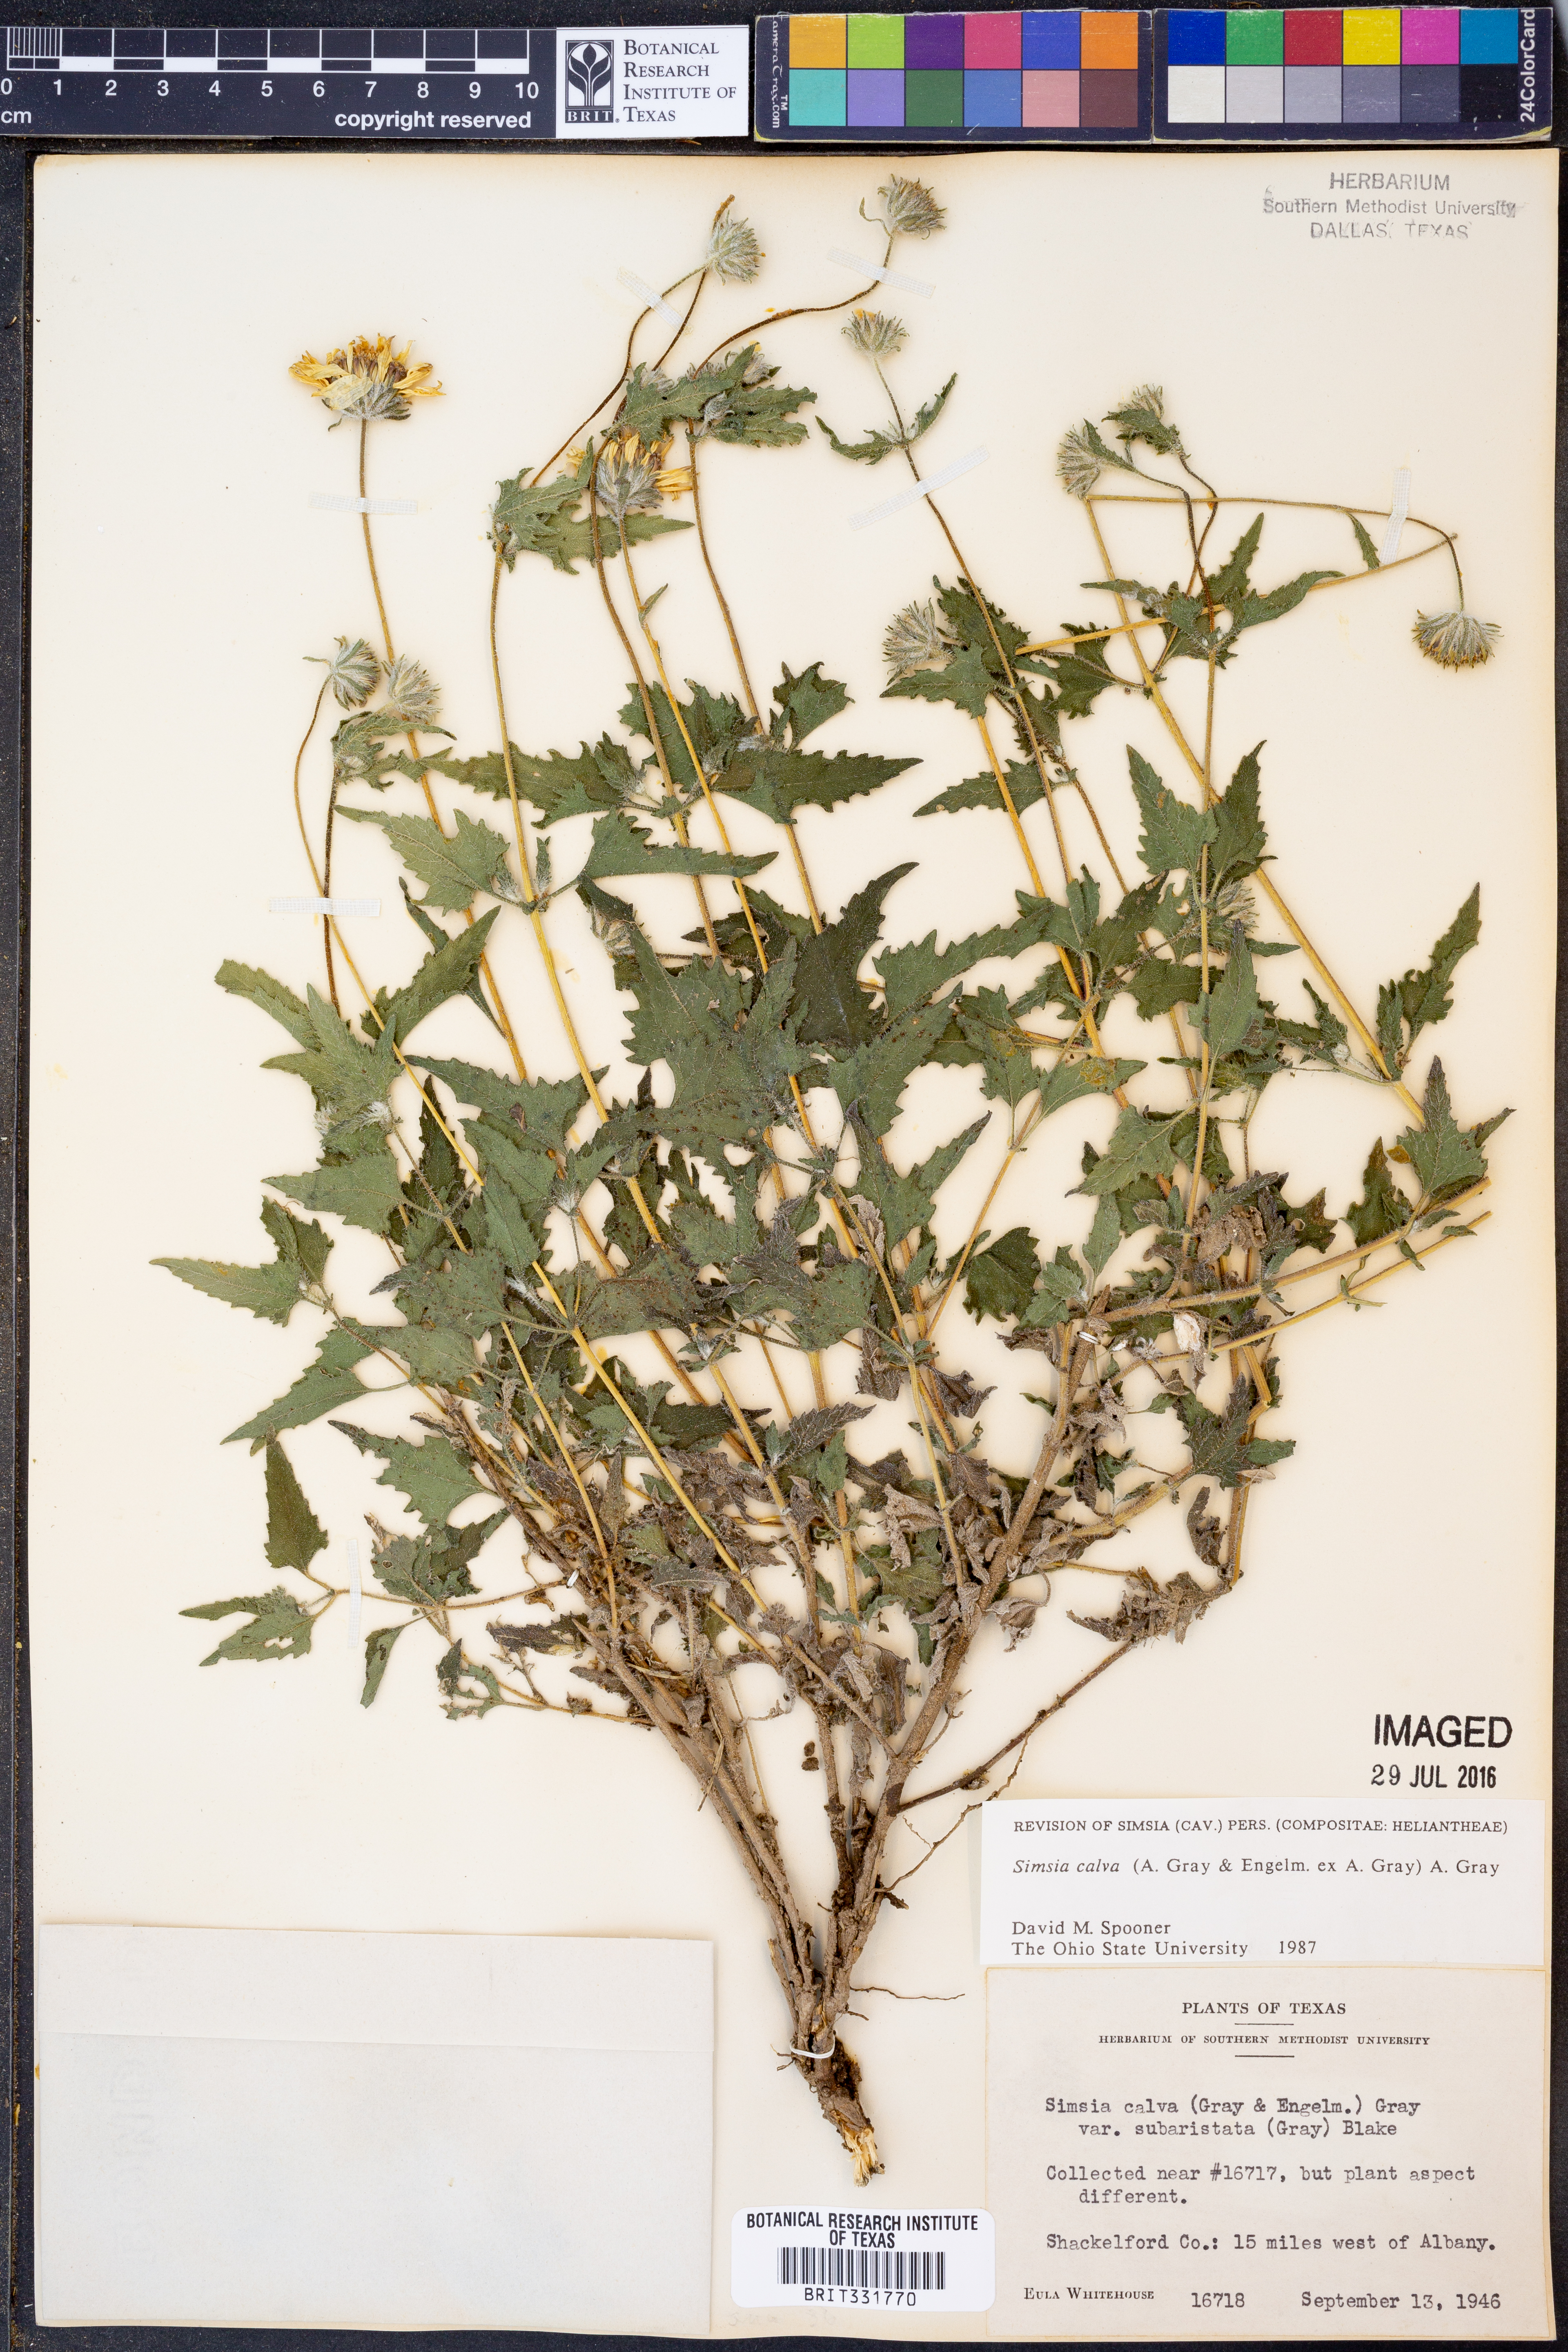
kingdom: Plantae
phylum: Tracheophyta
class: Magnoliopsida
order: Asterales
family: Asteraceae
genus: Simsia
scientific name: Simsia calva
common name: Awnless bush-sunflower
